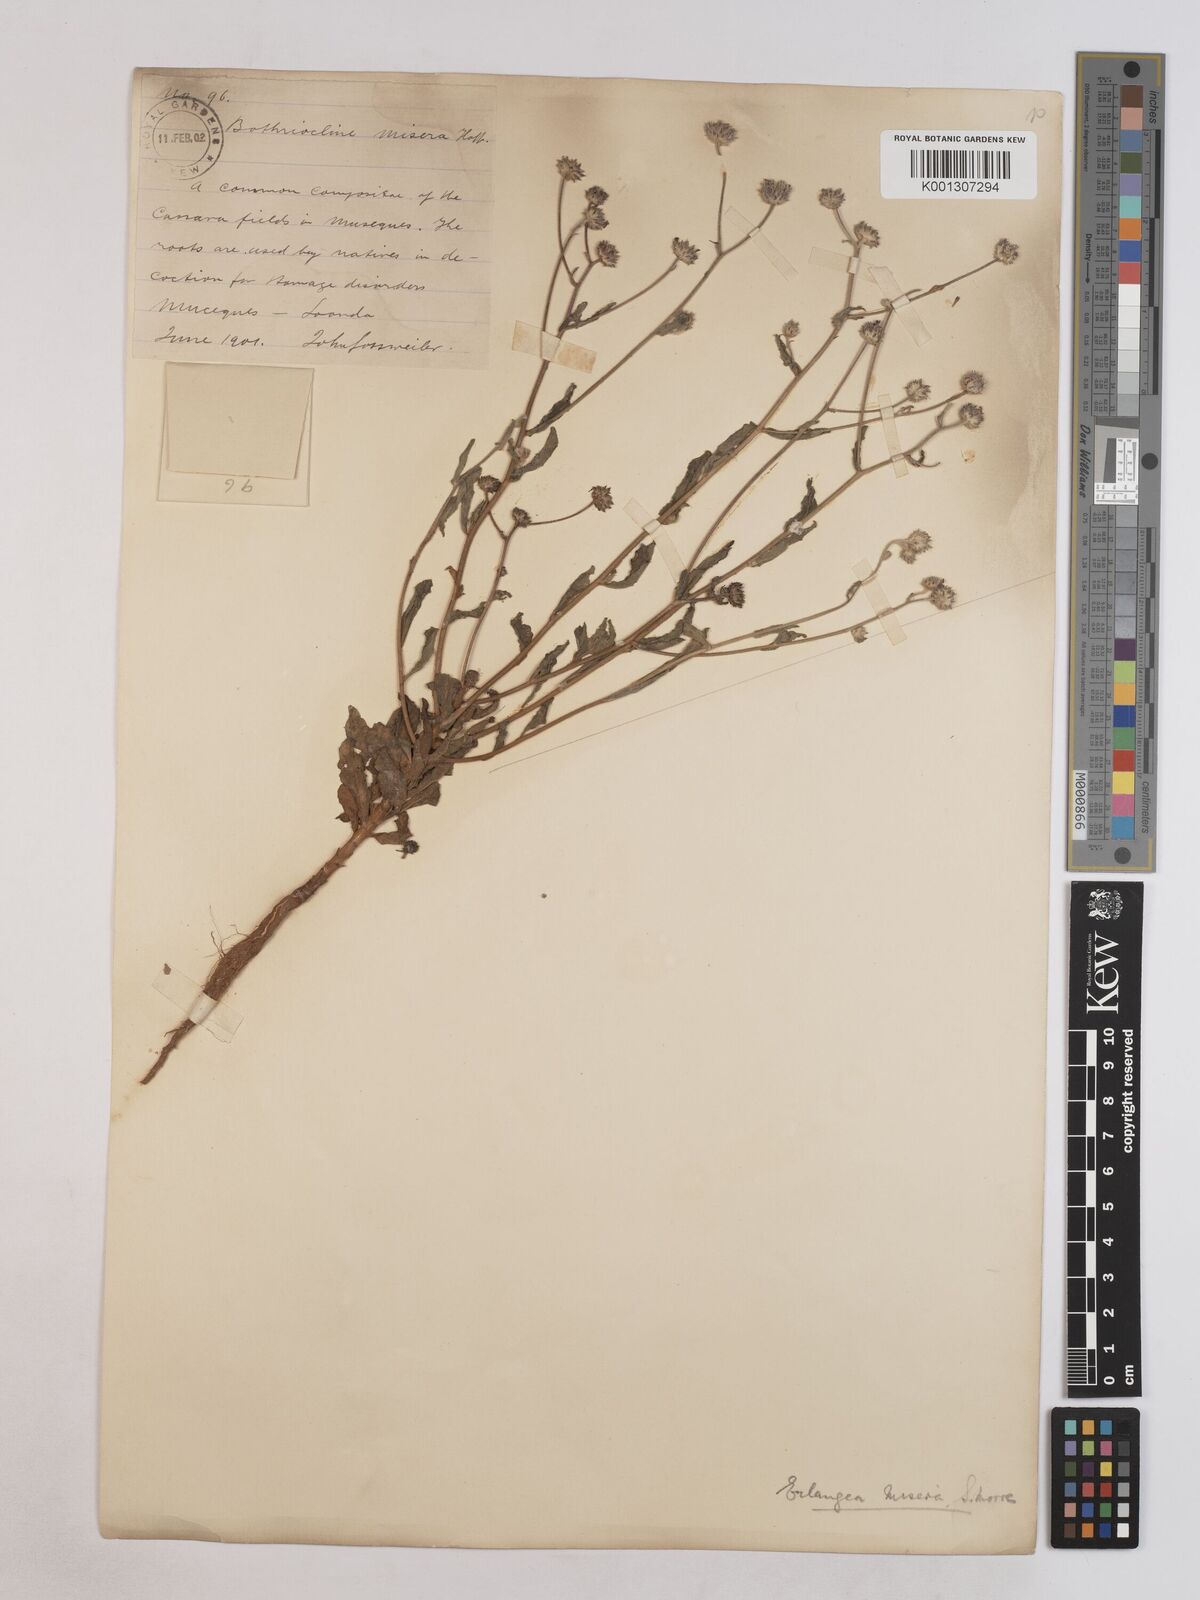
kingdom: Plantae
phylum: Tracheophyta
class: Magnoliopsida
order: Asterales
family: Asteraceae
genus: Erlangea
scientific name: Erlangea misera
